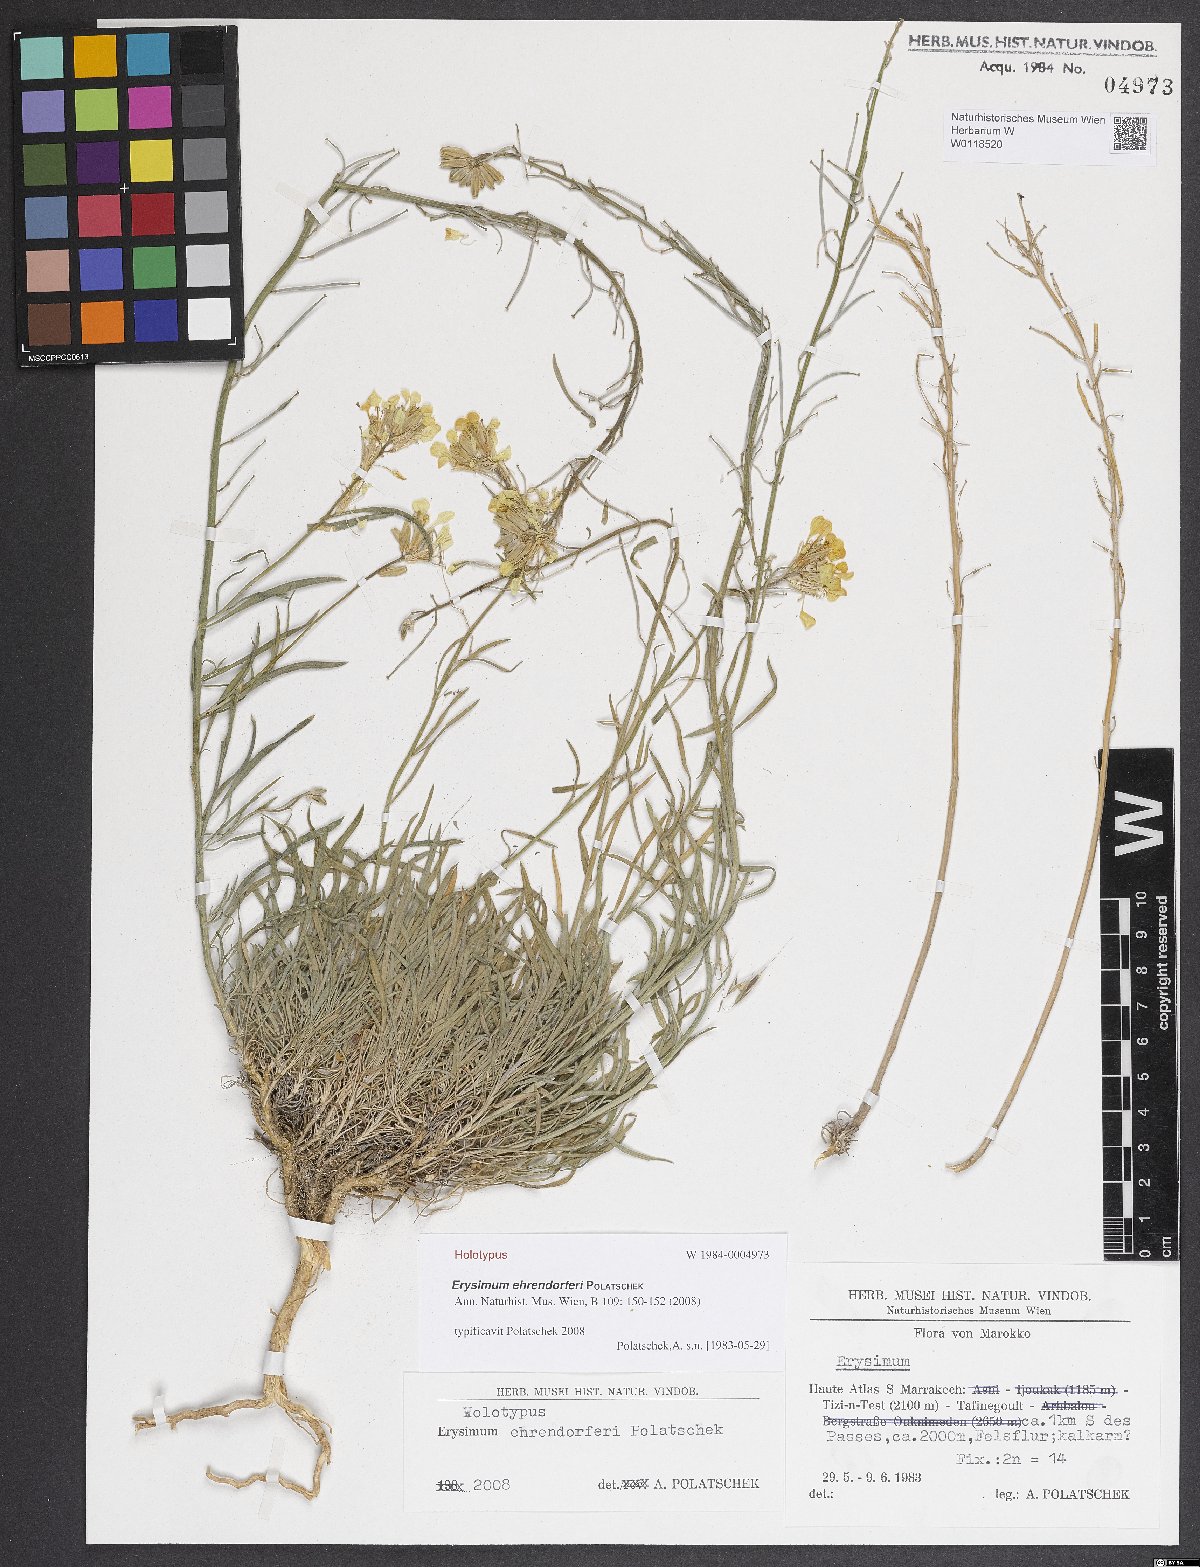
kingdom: Plantae
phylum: Tracheophyta
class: Magnoliopsida
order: Brassicales
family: Brassicaceae
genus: Erysimum
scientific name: Erysimum ehrendorferi
